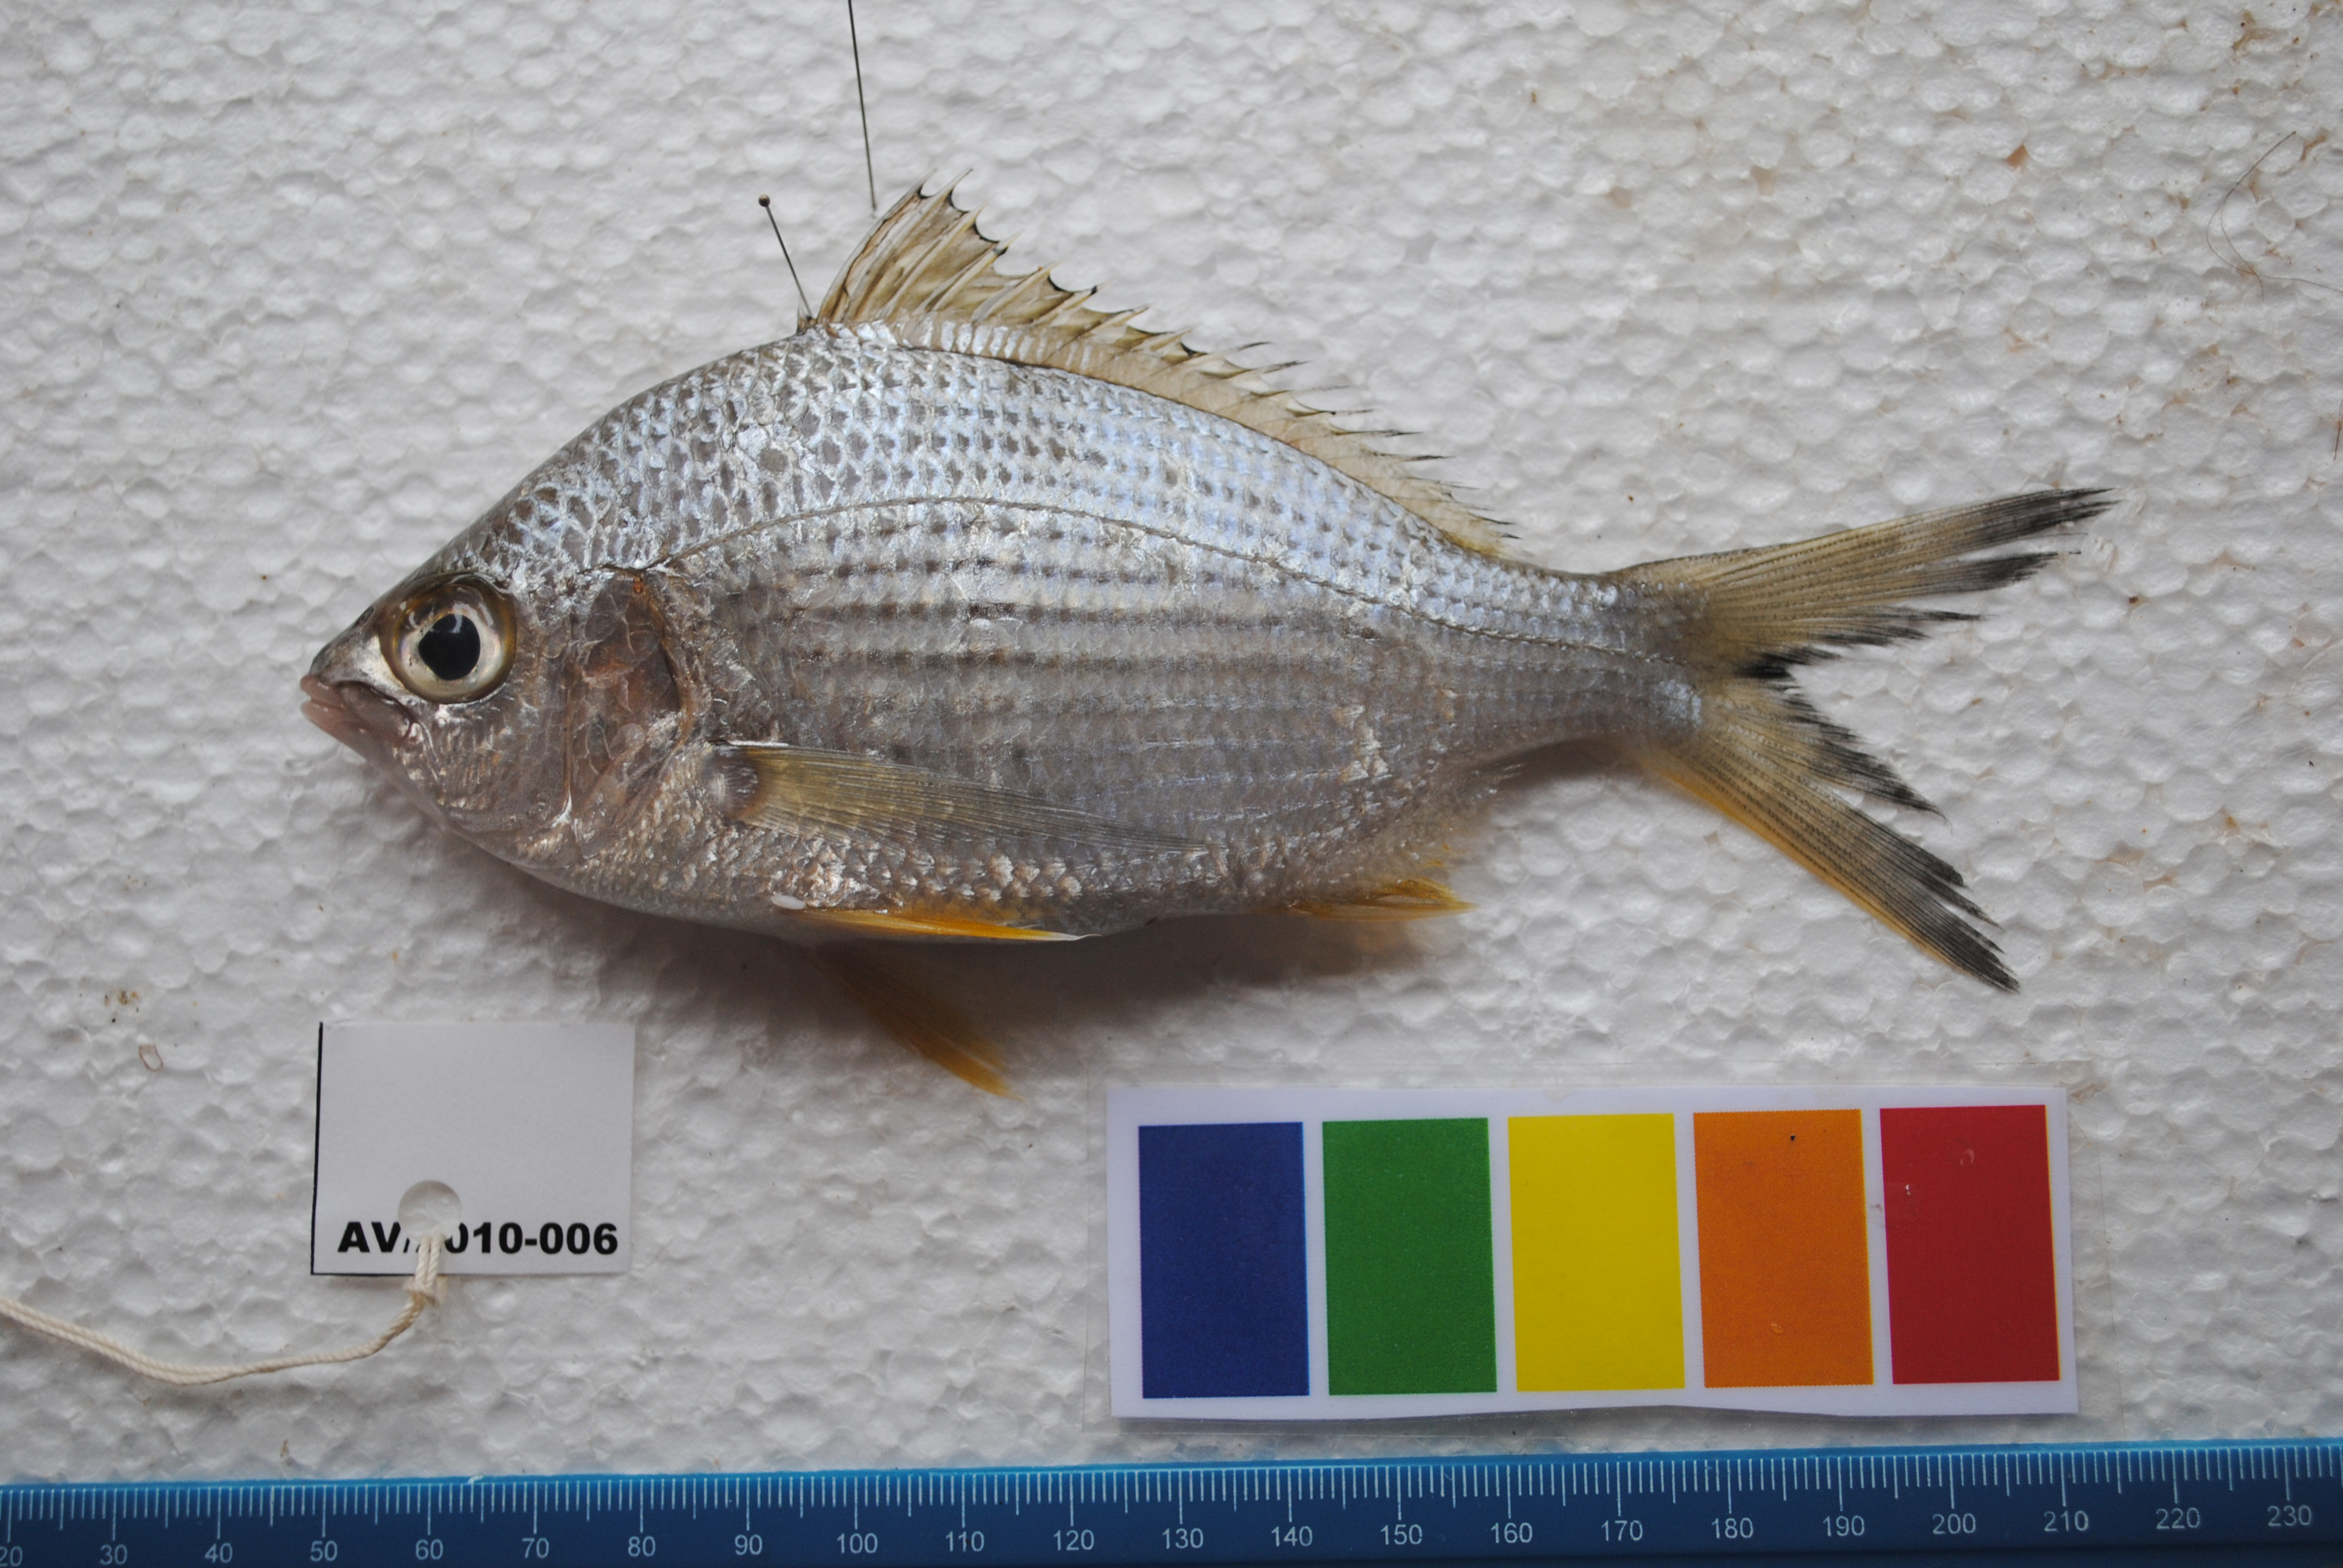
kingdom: Animalia
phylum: Chordata
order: Perciformes
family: Gerreidae
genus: Gerres
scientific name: Gerres methueni
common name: Longtail silverbiddy
